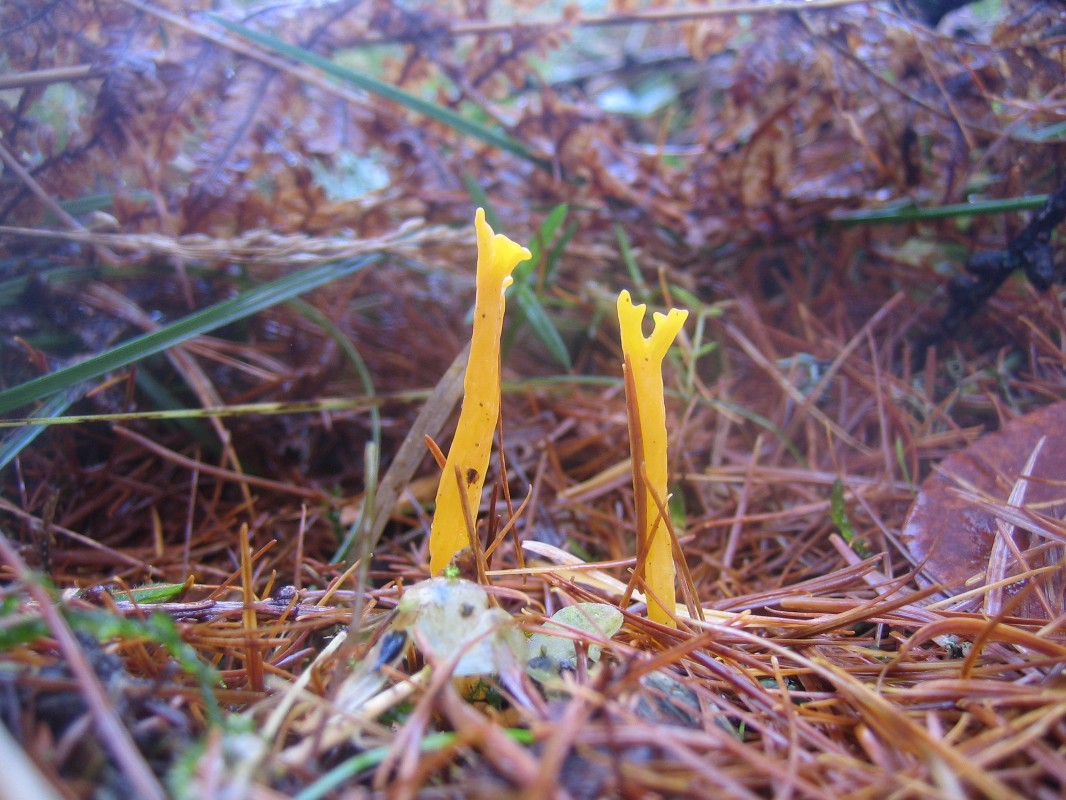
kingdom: Fungi
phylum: Basidiomycota
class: Dacrymycetes
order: Dacrymycetales
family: Dacrymycetaceae
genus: Calocera
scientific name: Calocera viscosa
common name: almindelig guldgaffel
